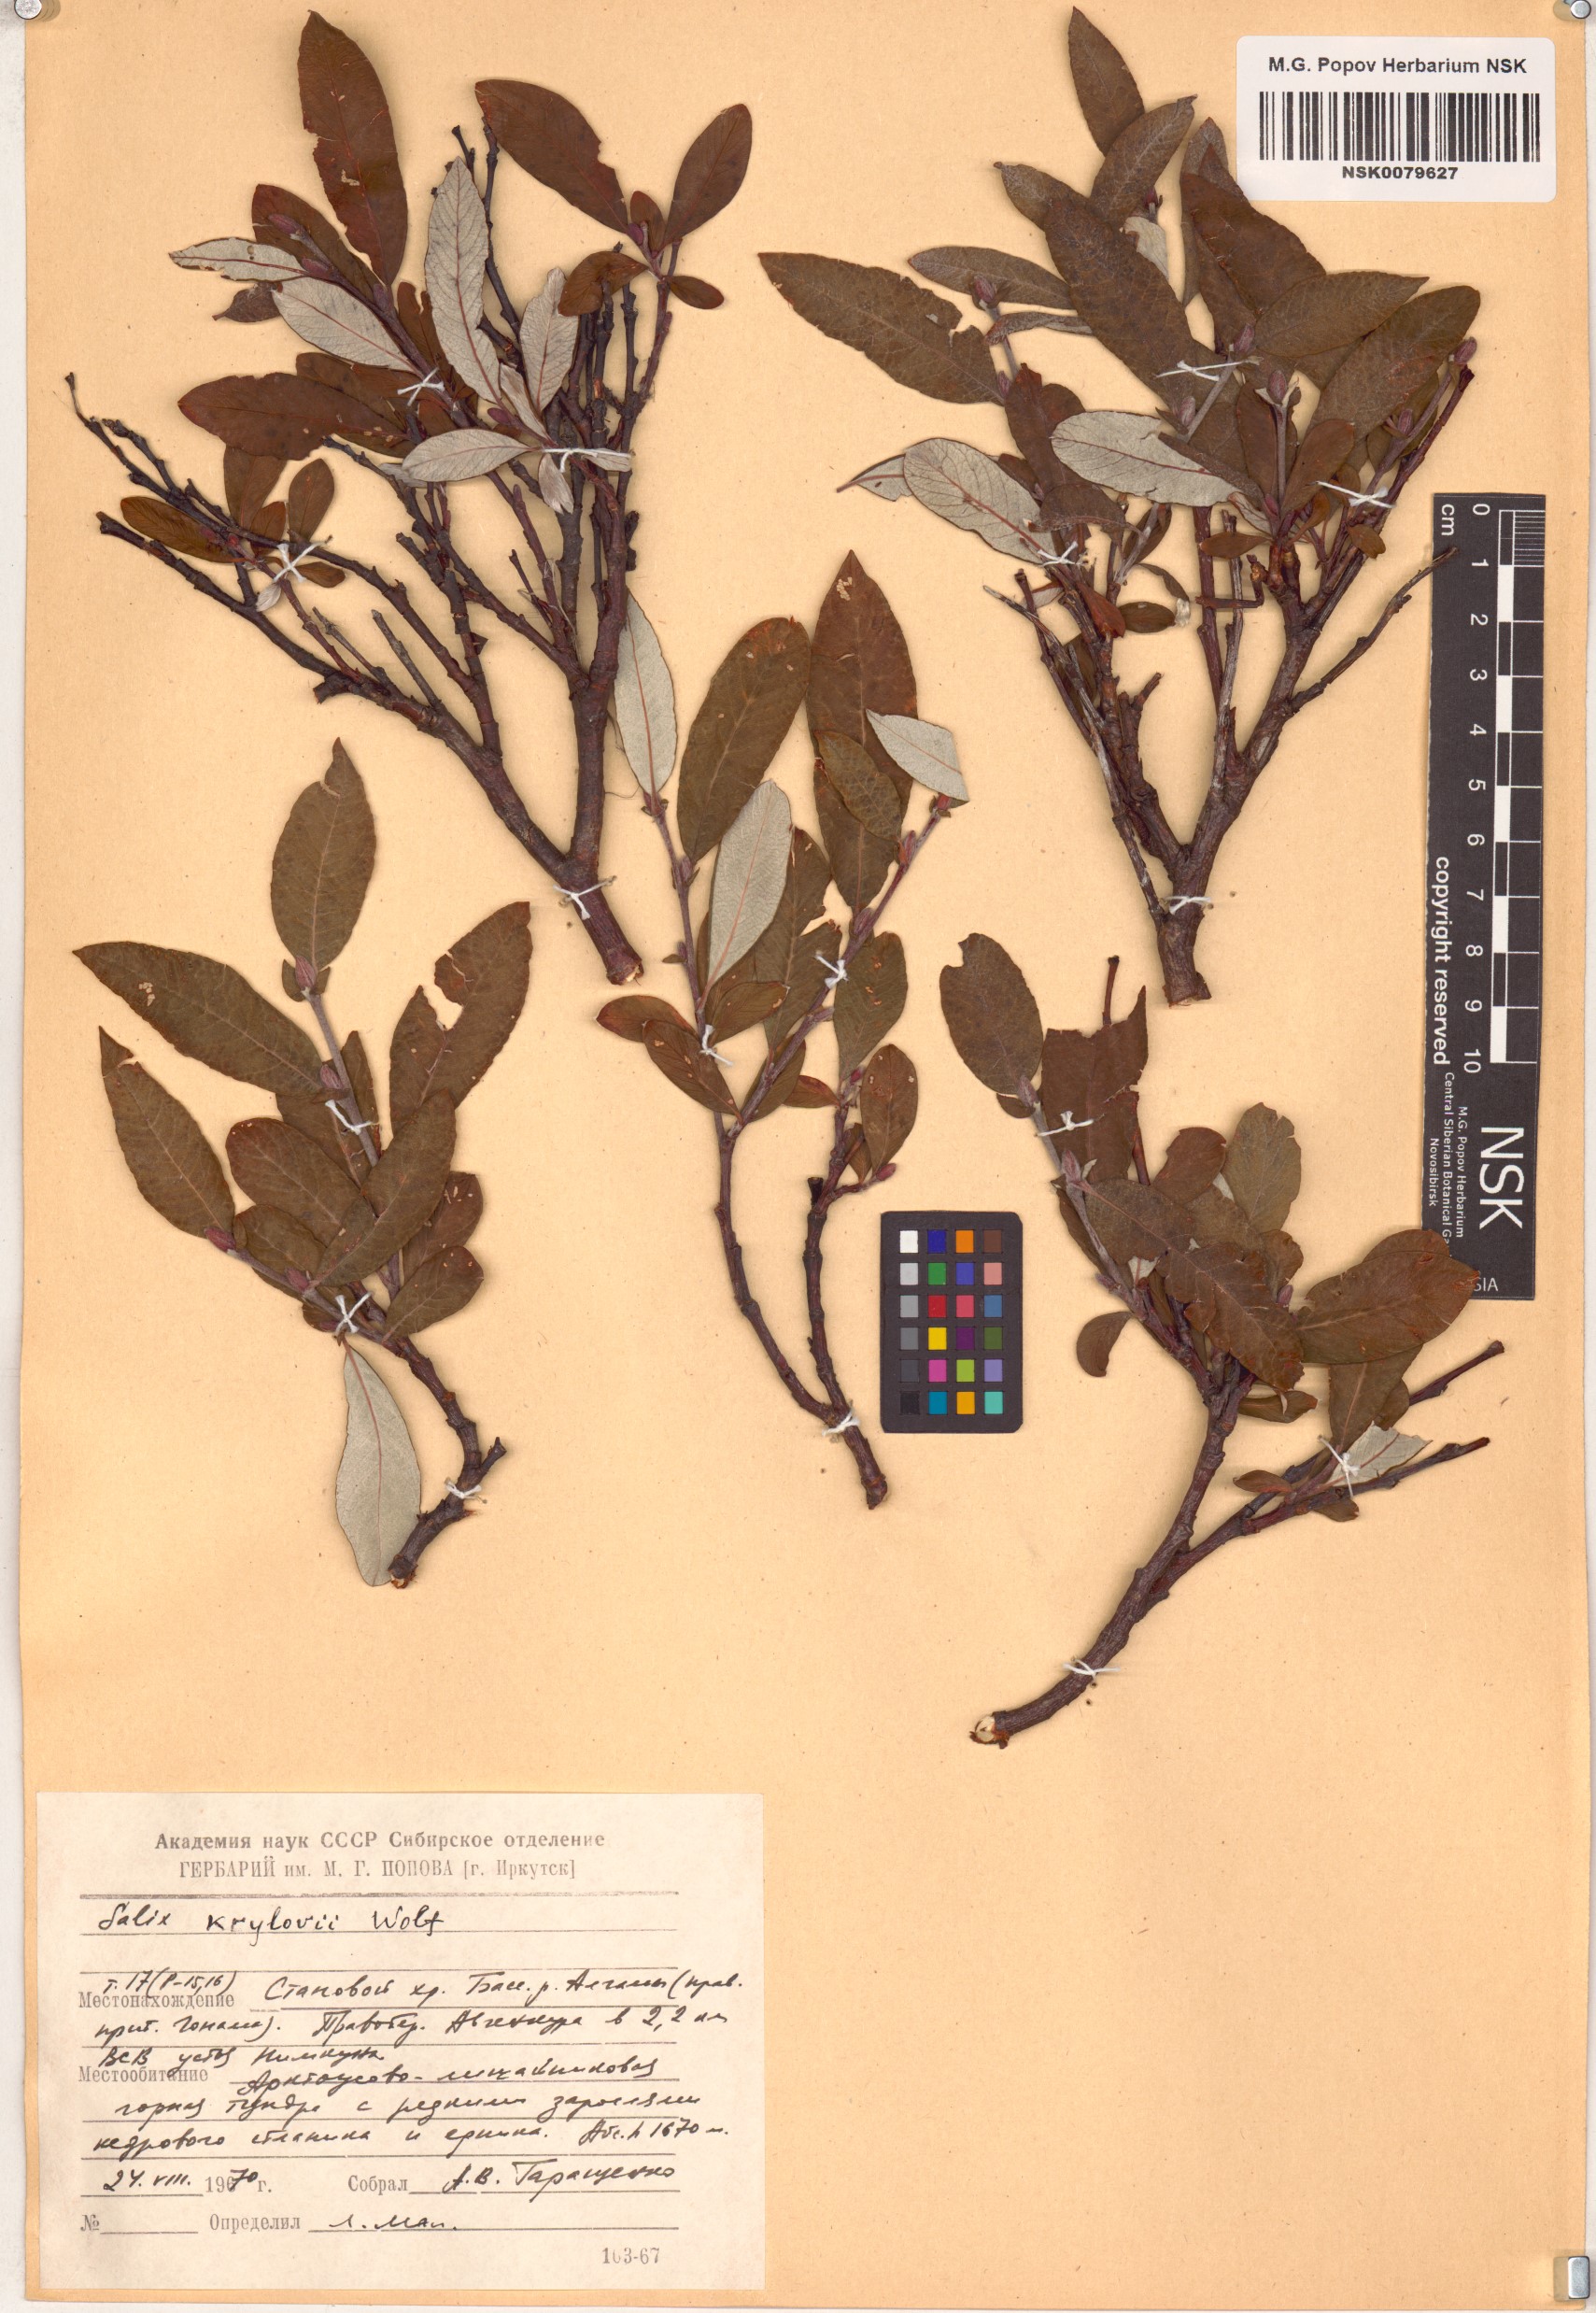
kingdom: Plantae
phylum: Tracheophyta
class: Magnoliopsida
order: Malpighiales
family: Salicaceae
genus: Salix
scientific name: Salix krylovii
